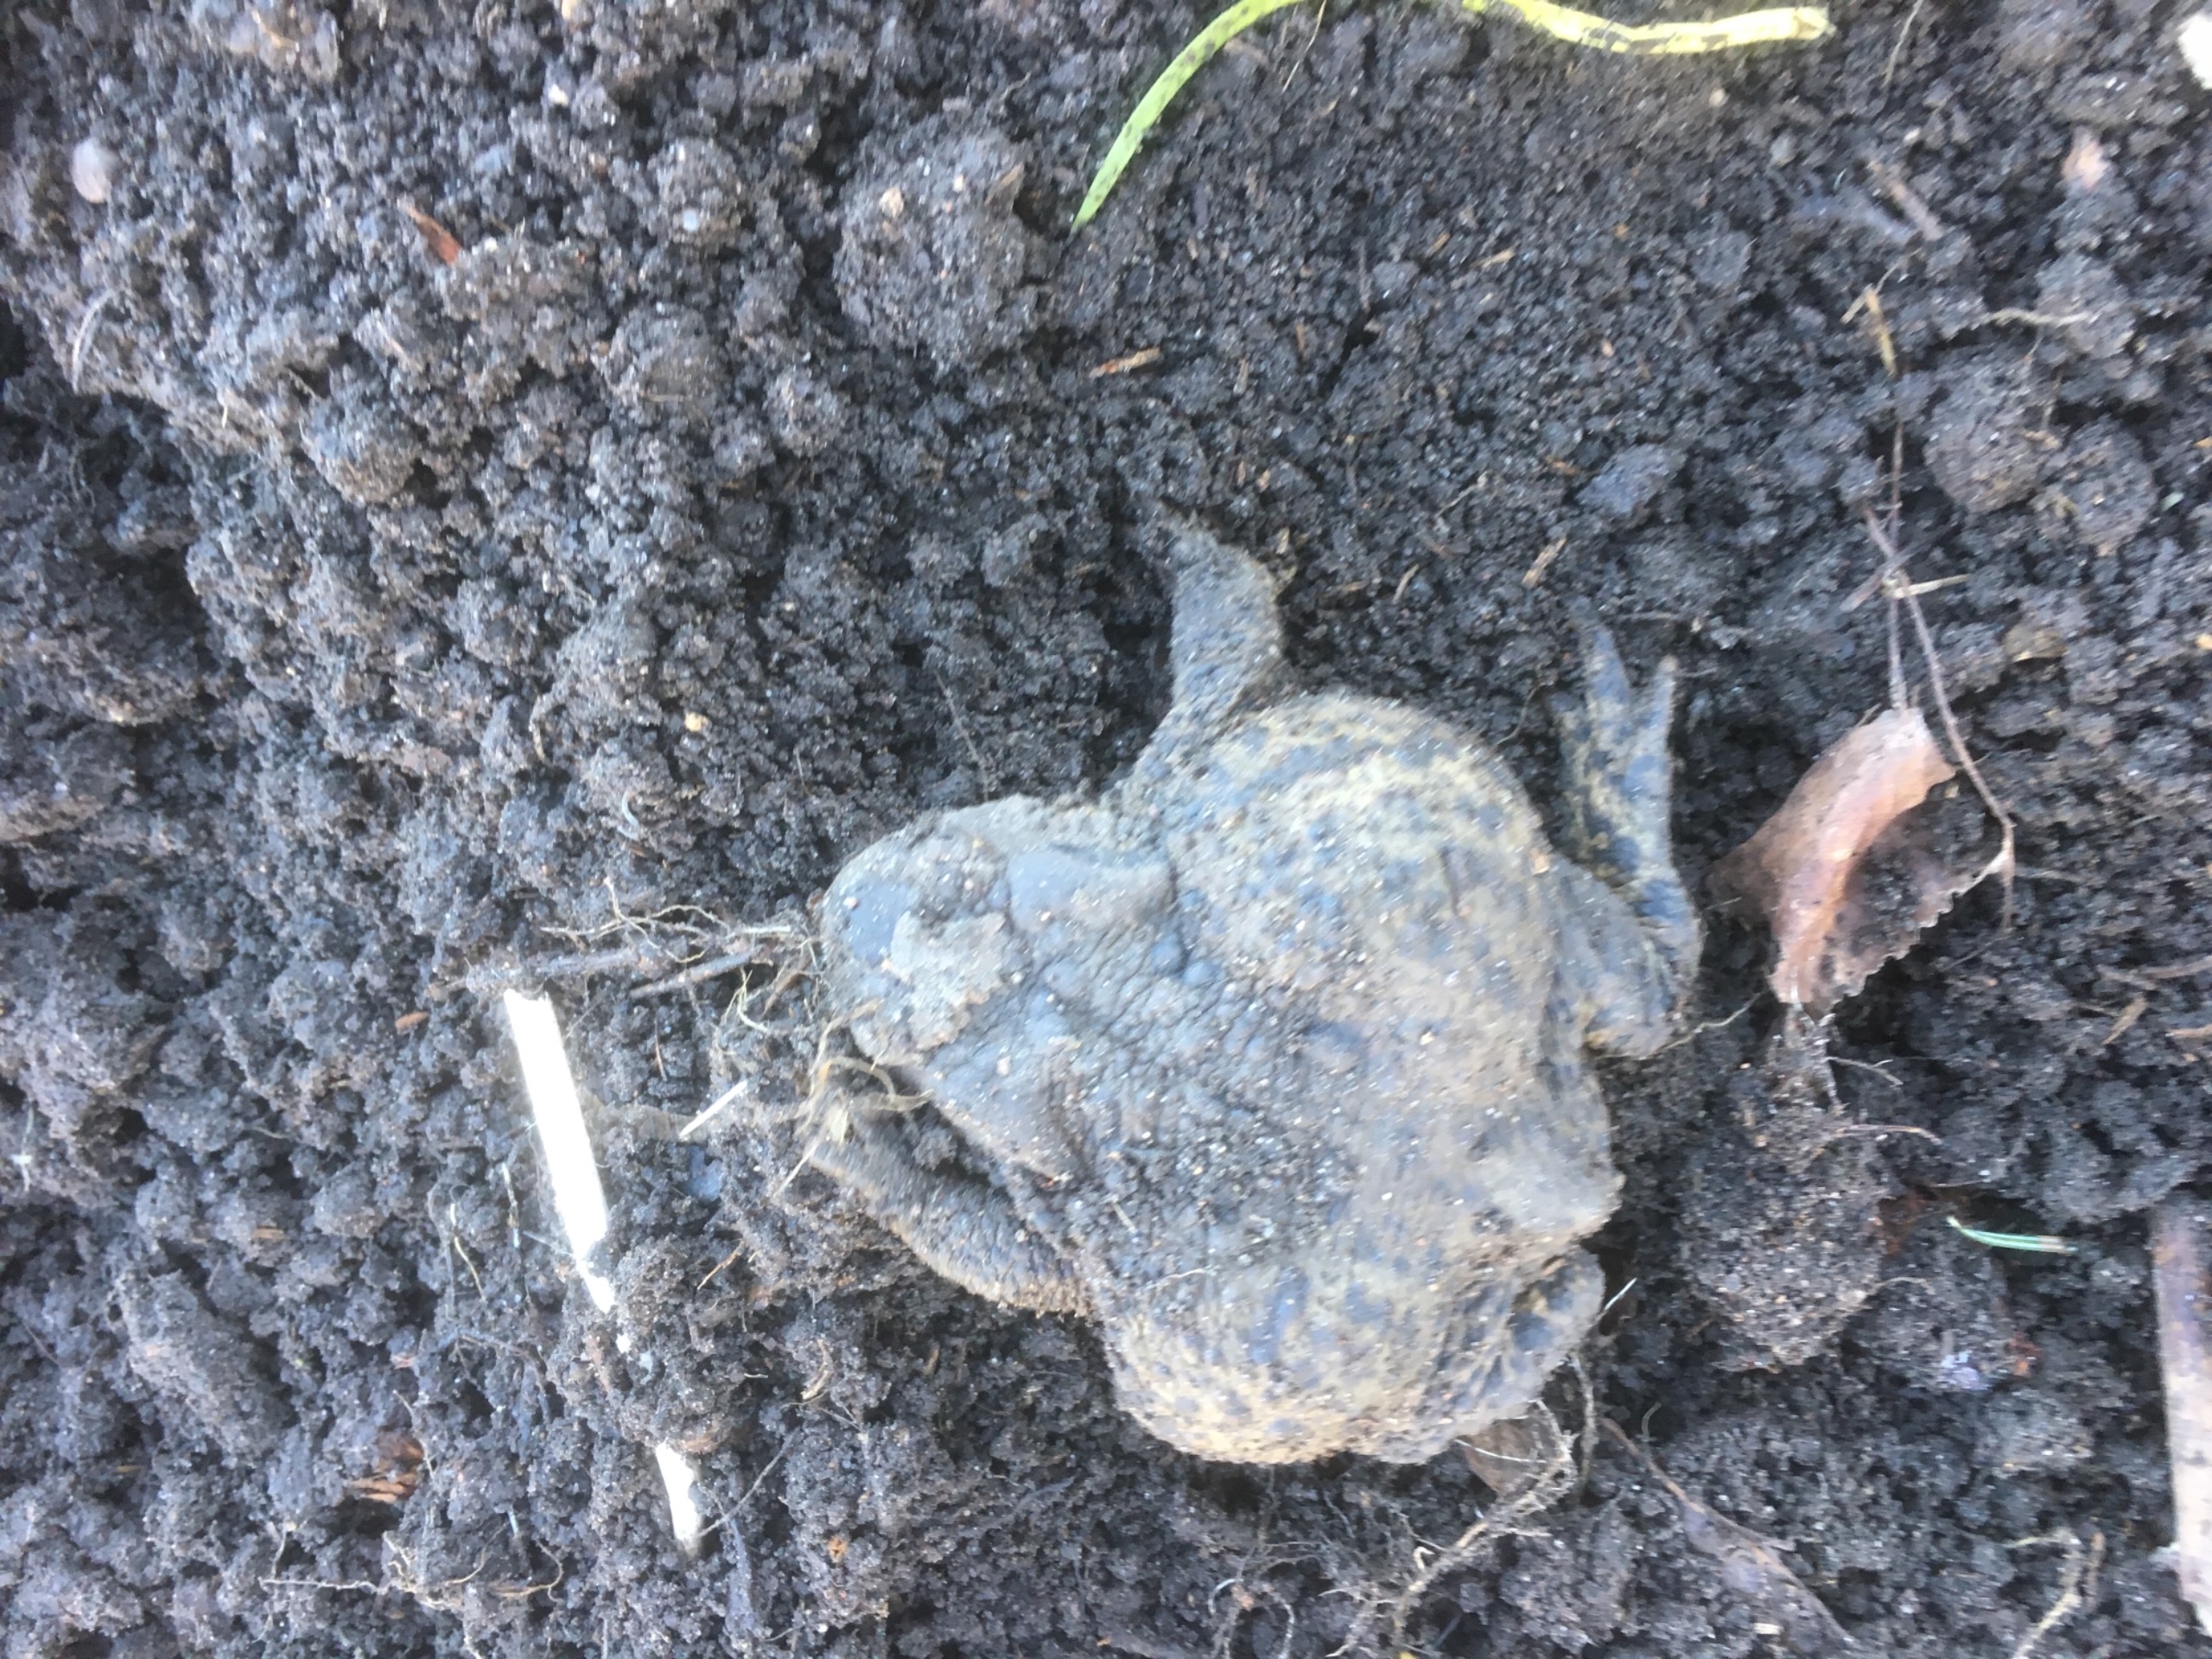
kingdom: Animalia
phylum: Chordata
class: Amphibia
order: Anura
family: Bufonidae
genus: Bufo
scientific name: Bufo bufo
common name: Skrubtudse
